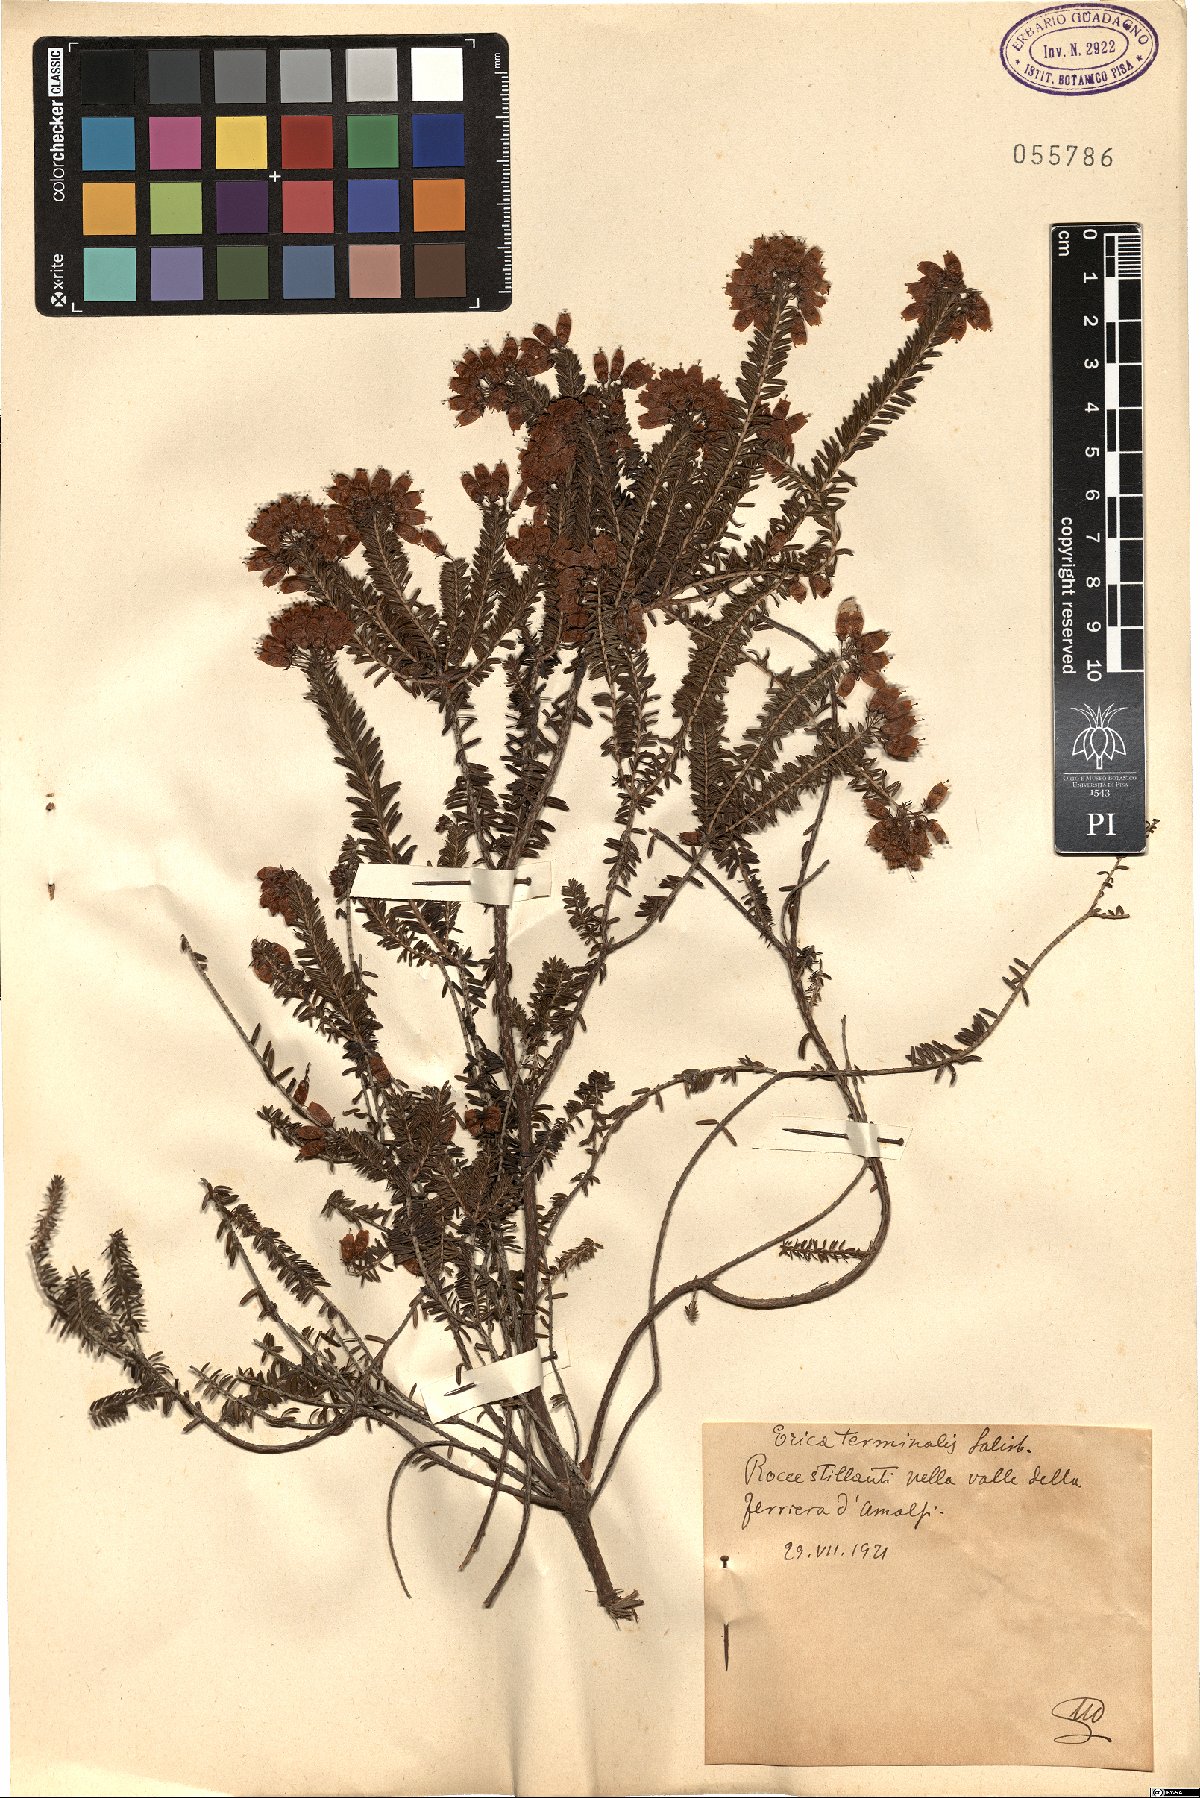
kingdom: Plantae
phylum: Tracheophyta
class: Magnoliopsida
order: Ericales
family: Ericaceae
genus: Erica
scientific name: Erica terminalis
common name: Corsican heath
